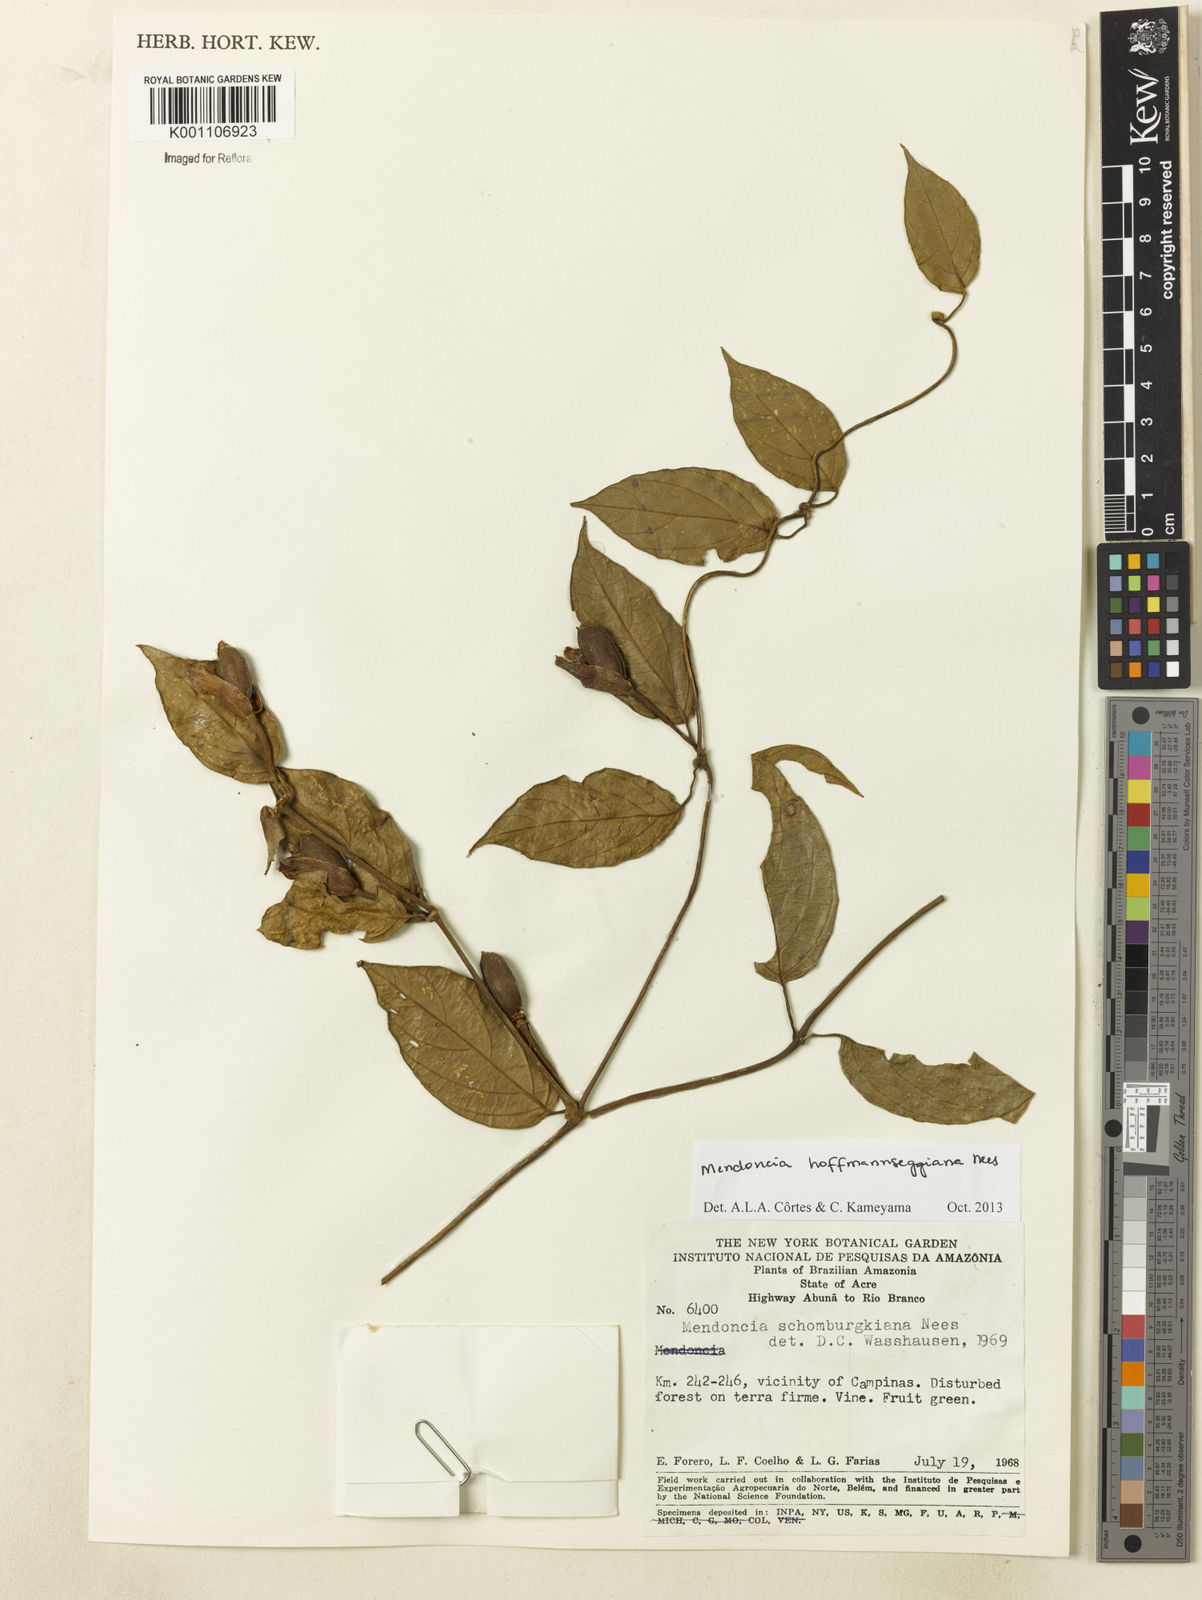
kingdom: Plantae
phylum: Tracheophyta
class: Magnoliopsida
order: Lamiales
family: Acanthaceae
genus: Mendoncia
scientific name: Mendoncia hoffmannseggiana
